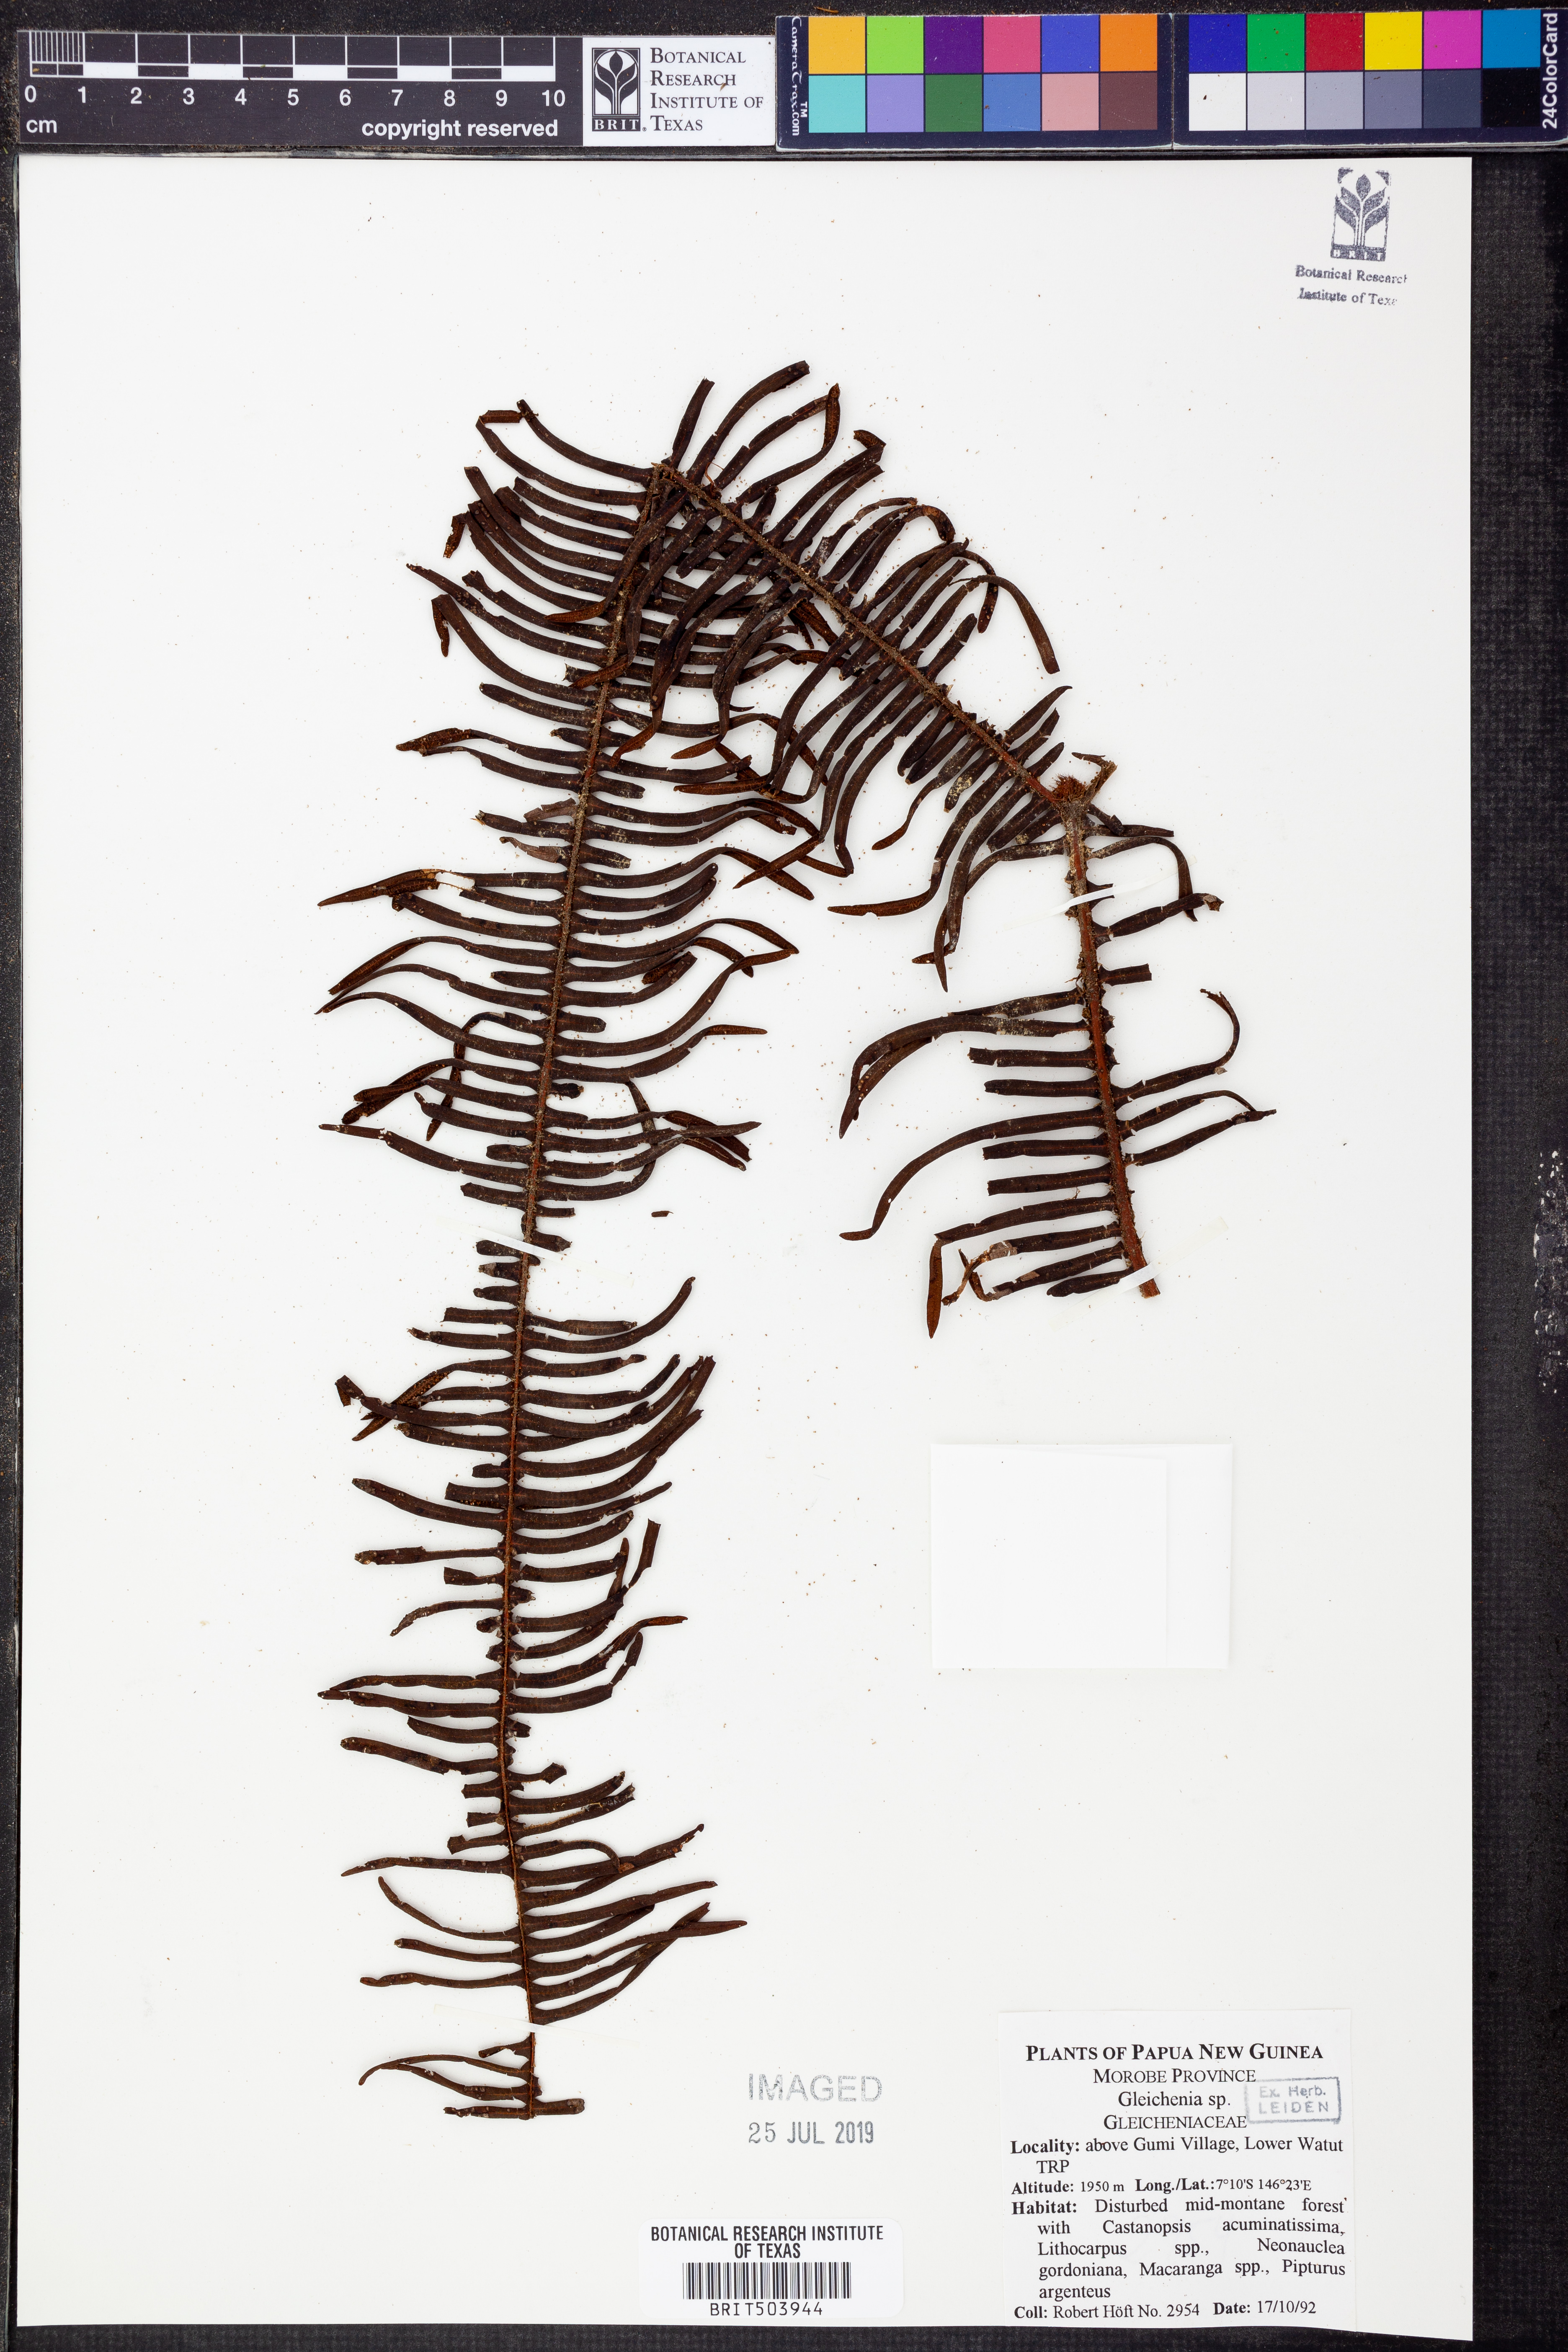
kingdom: Plantae
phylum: Tracheophyta
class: Polypodiopsida
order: Gleicheniales
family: Gleicheniaceae
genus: Gleichenia
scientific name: Gleichenia
